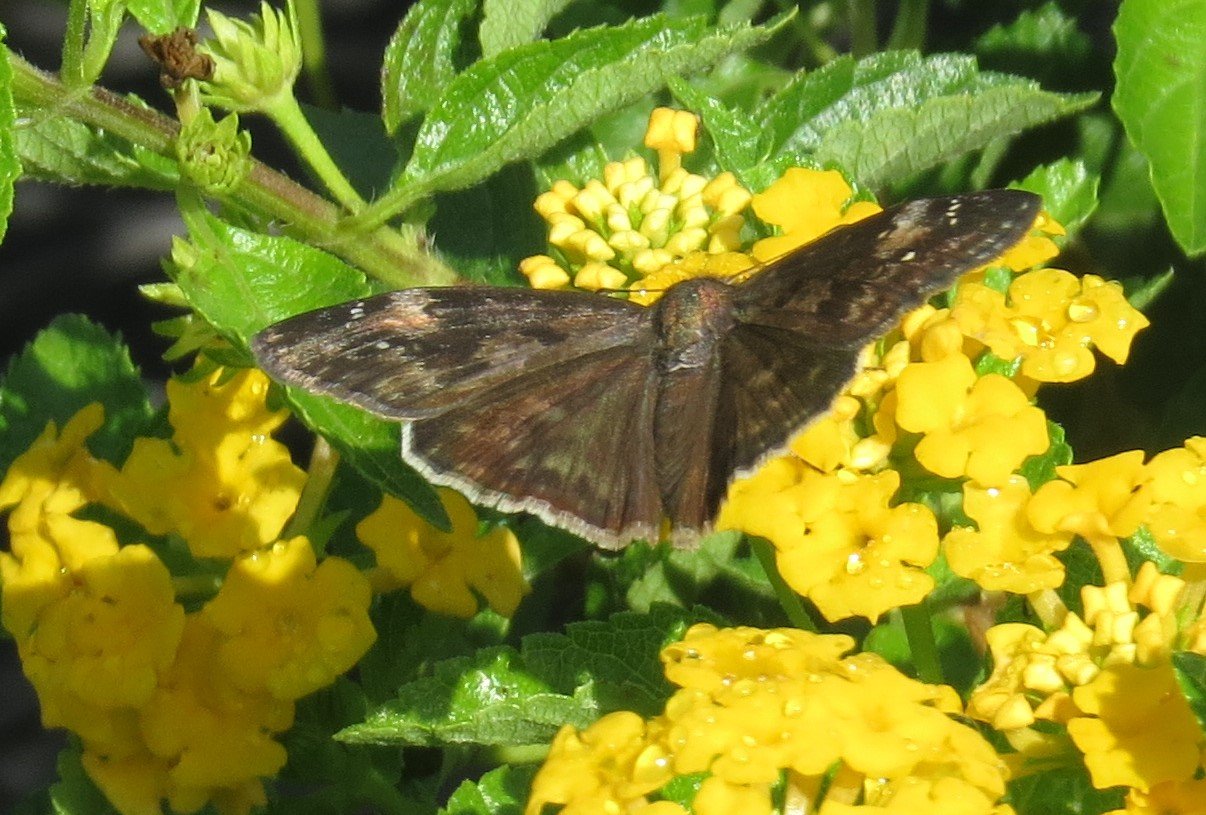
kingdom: Animalia
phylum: Arthropoda
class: Insecta
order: Lepidoptera
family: Hesperiidae
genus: Erynnis
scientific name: Erynnis zarucco
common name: Zarucco Duskywing
